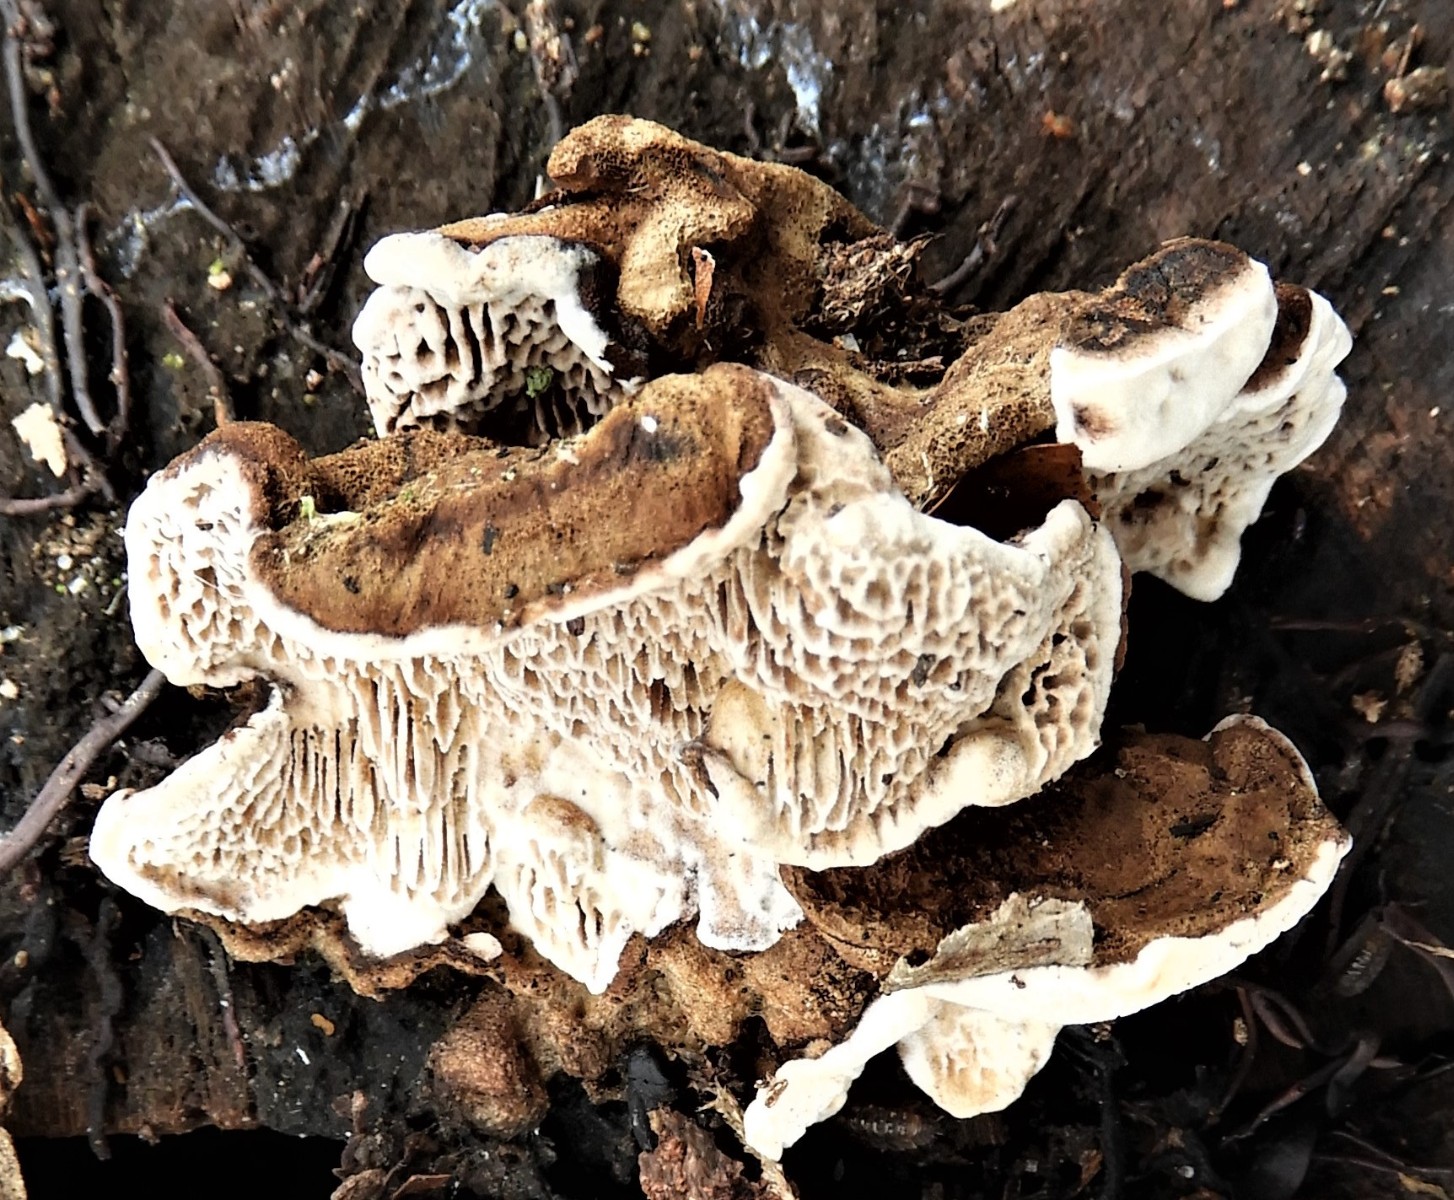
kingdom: Fungi
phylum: Basidiomycota
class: Agaricomycetes
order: Polyporales
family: Polyporaceae
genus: Podofomes
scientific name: Podofomes mollis
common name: blød begporesvamp
